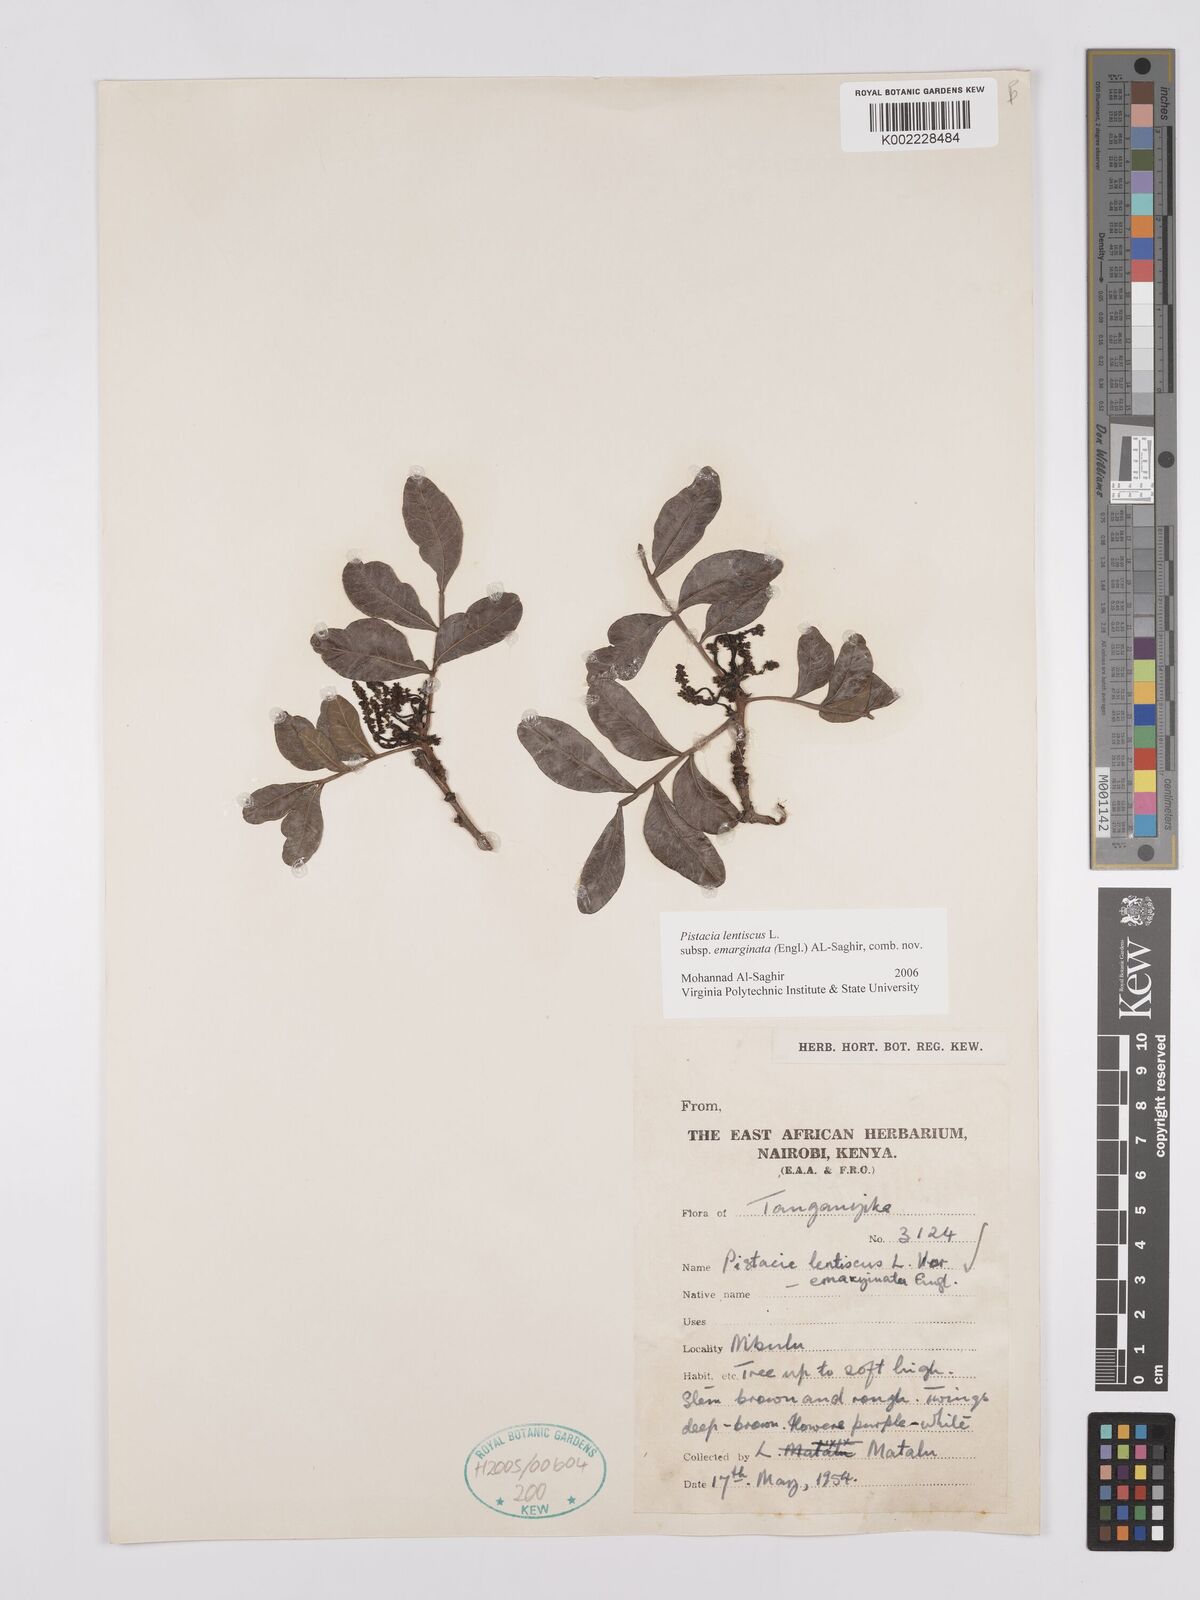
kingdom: Plantae
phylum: Tracheophyta
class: Magnoliopsida
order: Sapindales
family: Anacardiaceae
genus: Pistacia
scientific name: Pistacia lentiscus
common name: Lentisk
